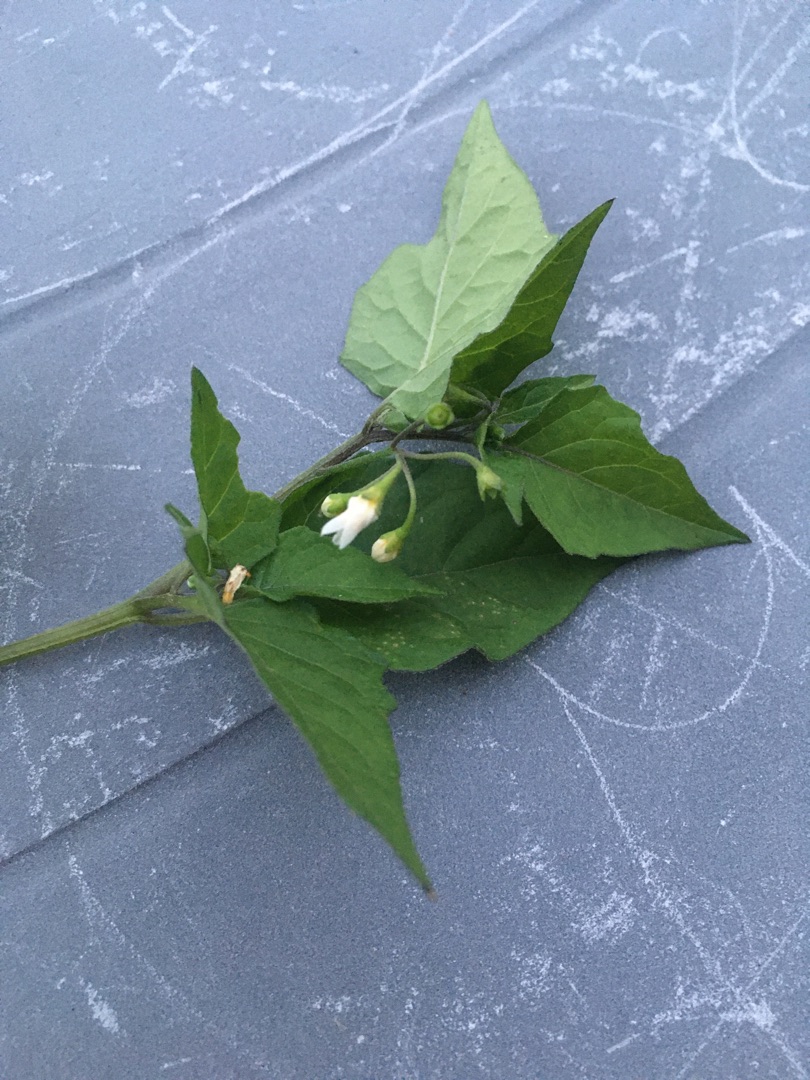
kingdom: Plantae
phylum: Tracheophyta
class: Magnoliopsida
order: Solanales
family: Solanaceae
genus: Solanum
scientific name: Solanum nigrum
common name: Sort natskygge
